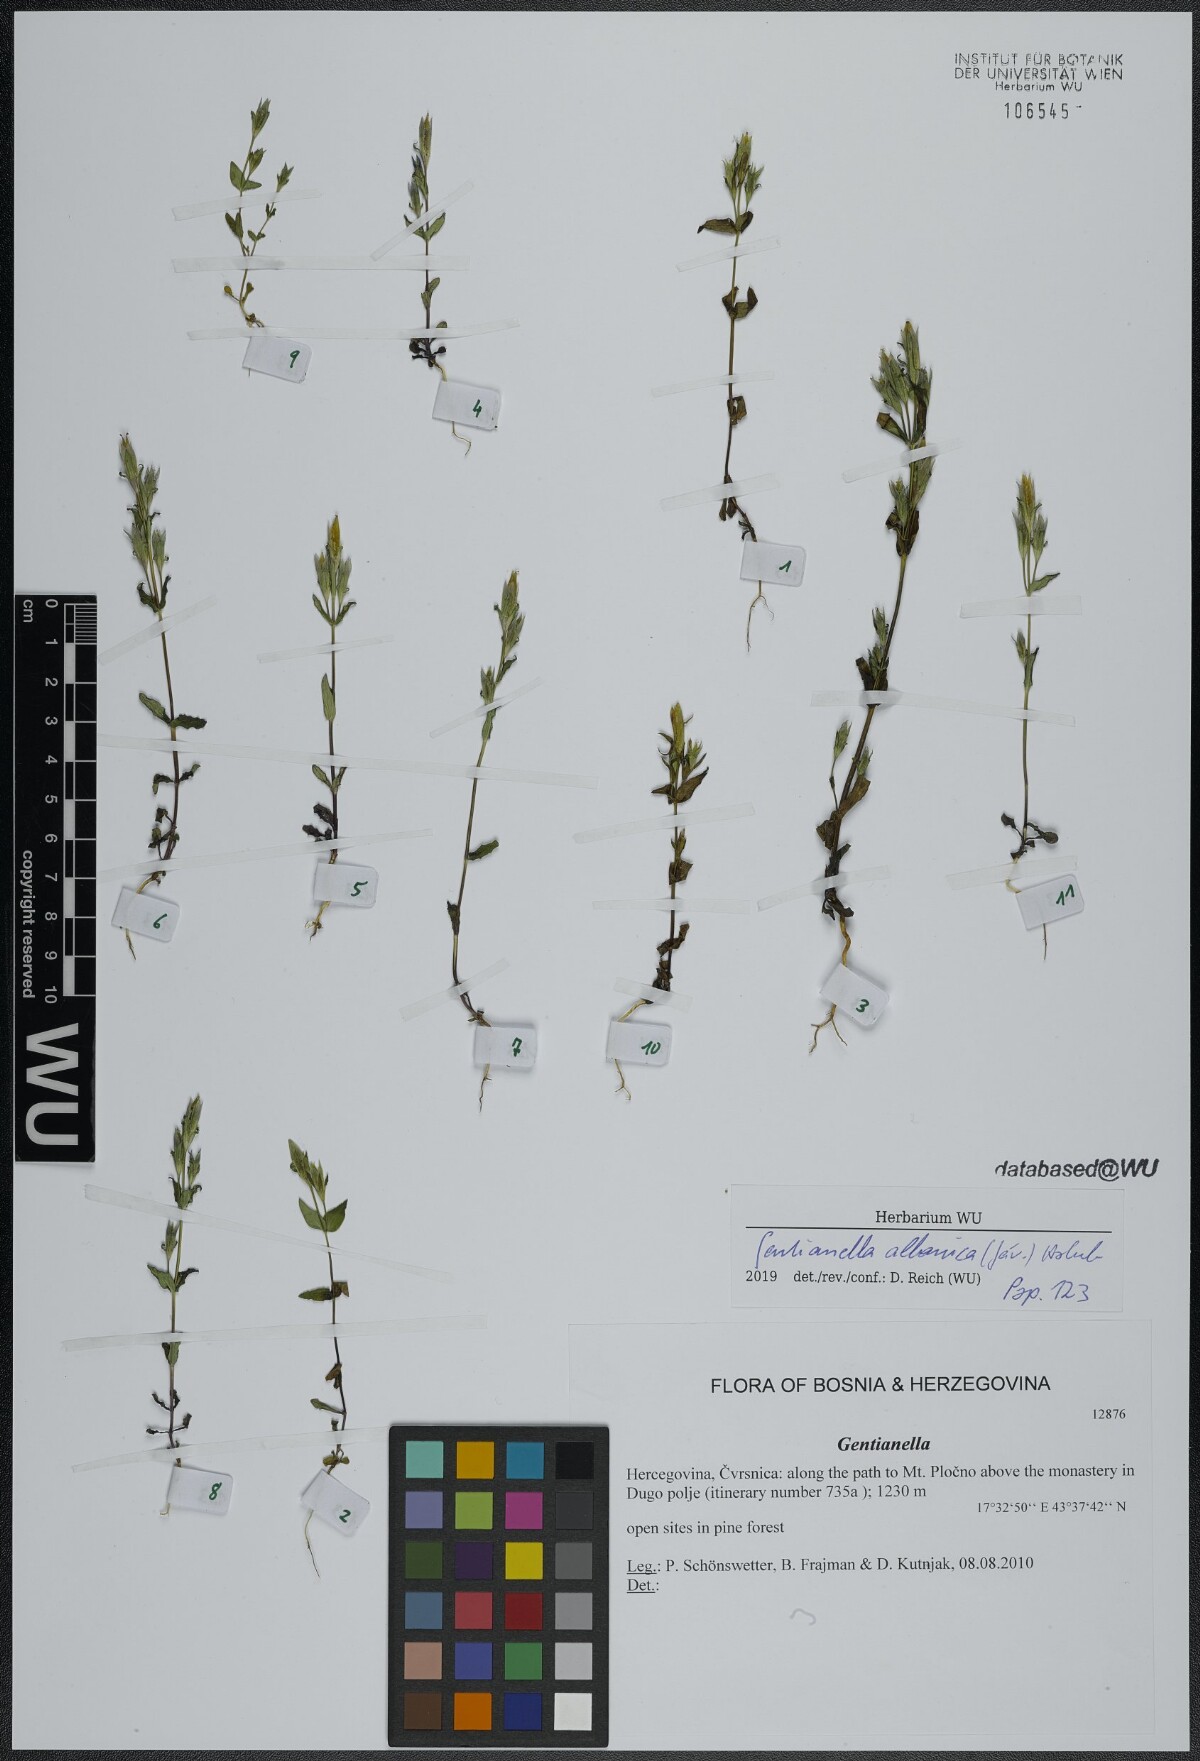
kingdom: Plantae
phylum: Tracheophyta
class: Magnoliopsida
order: Gentianales
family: Gentianaceae
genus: Gentianella
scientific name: Gentianella albanica
